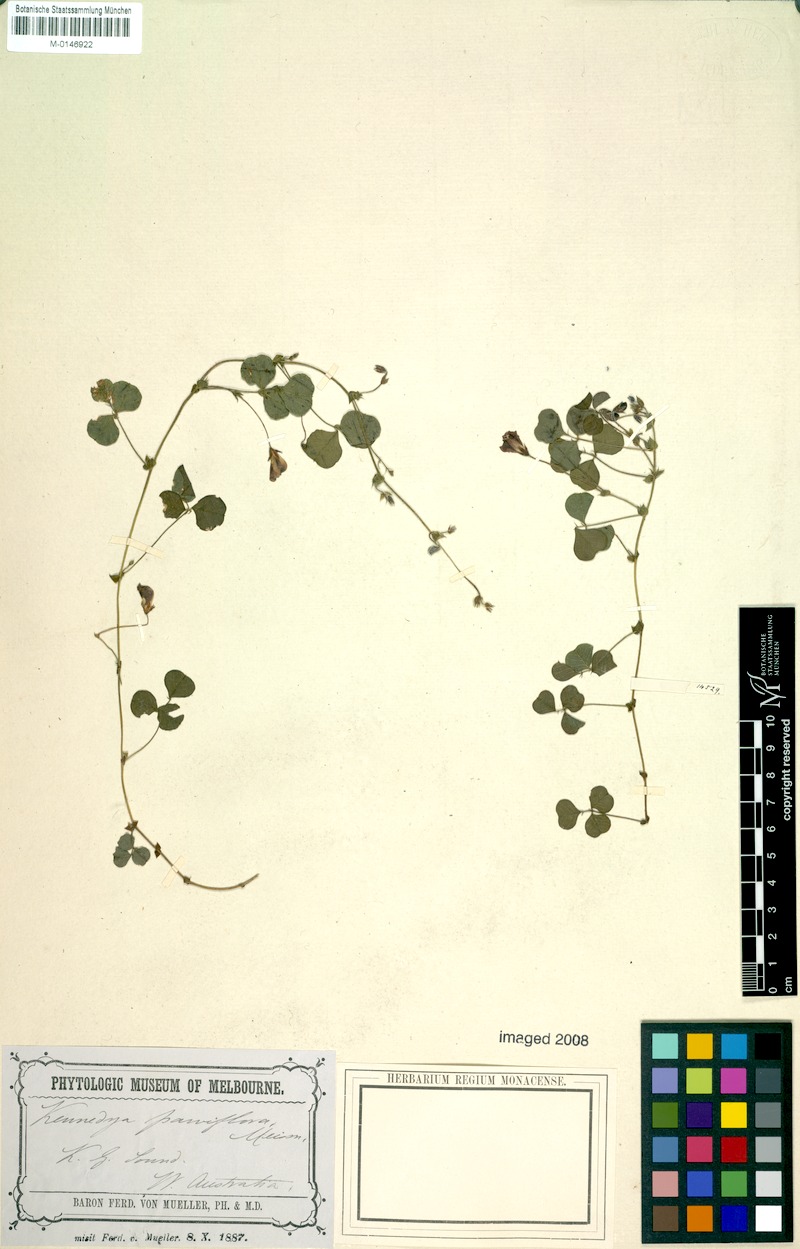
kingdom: Plantae
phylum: Tracheophyta
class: Magnoliopsida
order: Fabales
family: Fabaceae
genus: Kennedia
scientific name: Kennedia parviflora
